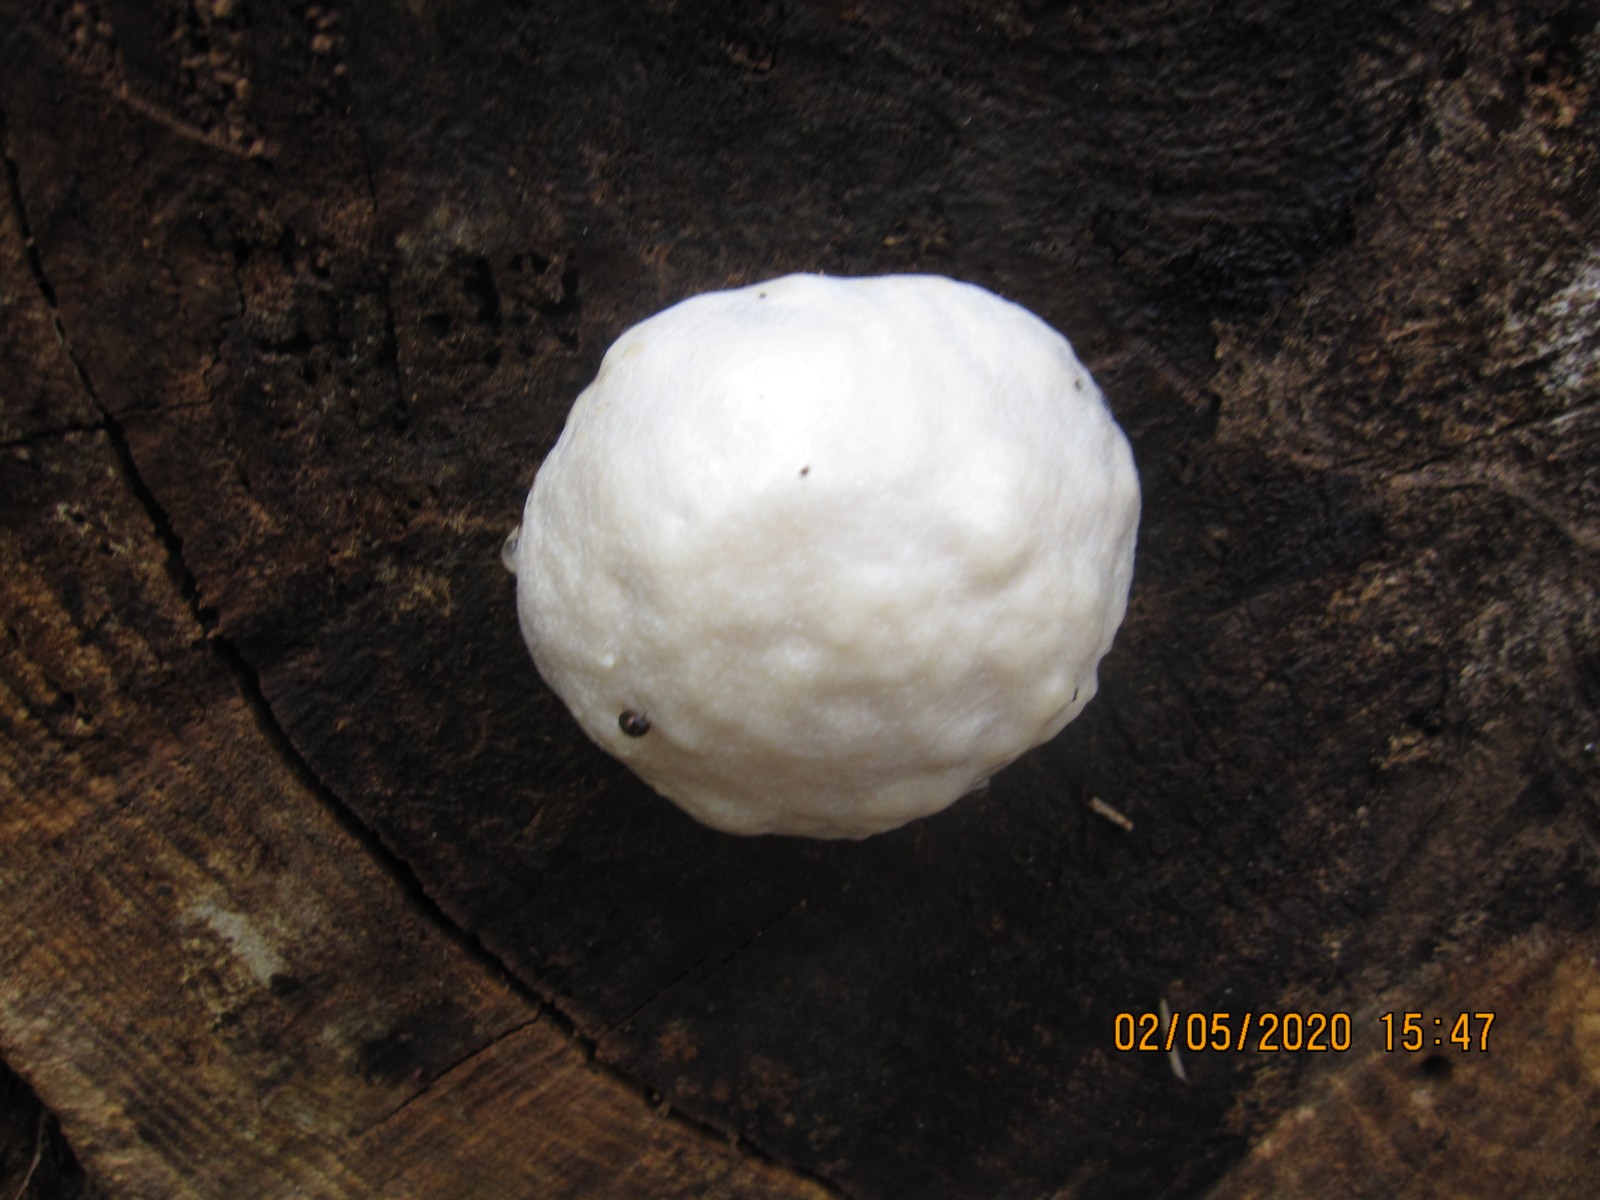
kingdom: Protozoa
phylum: Mycetozoa
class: Myxomycetes
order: Cribrariales
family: Tubiferaceae
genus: Reticularia
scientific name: Reticularia lycoperdon
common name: skinnende støvpude
